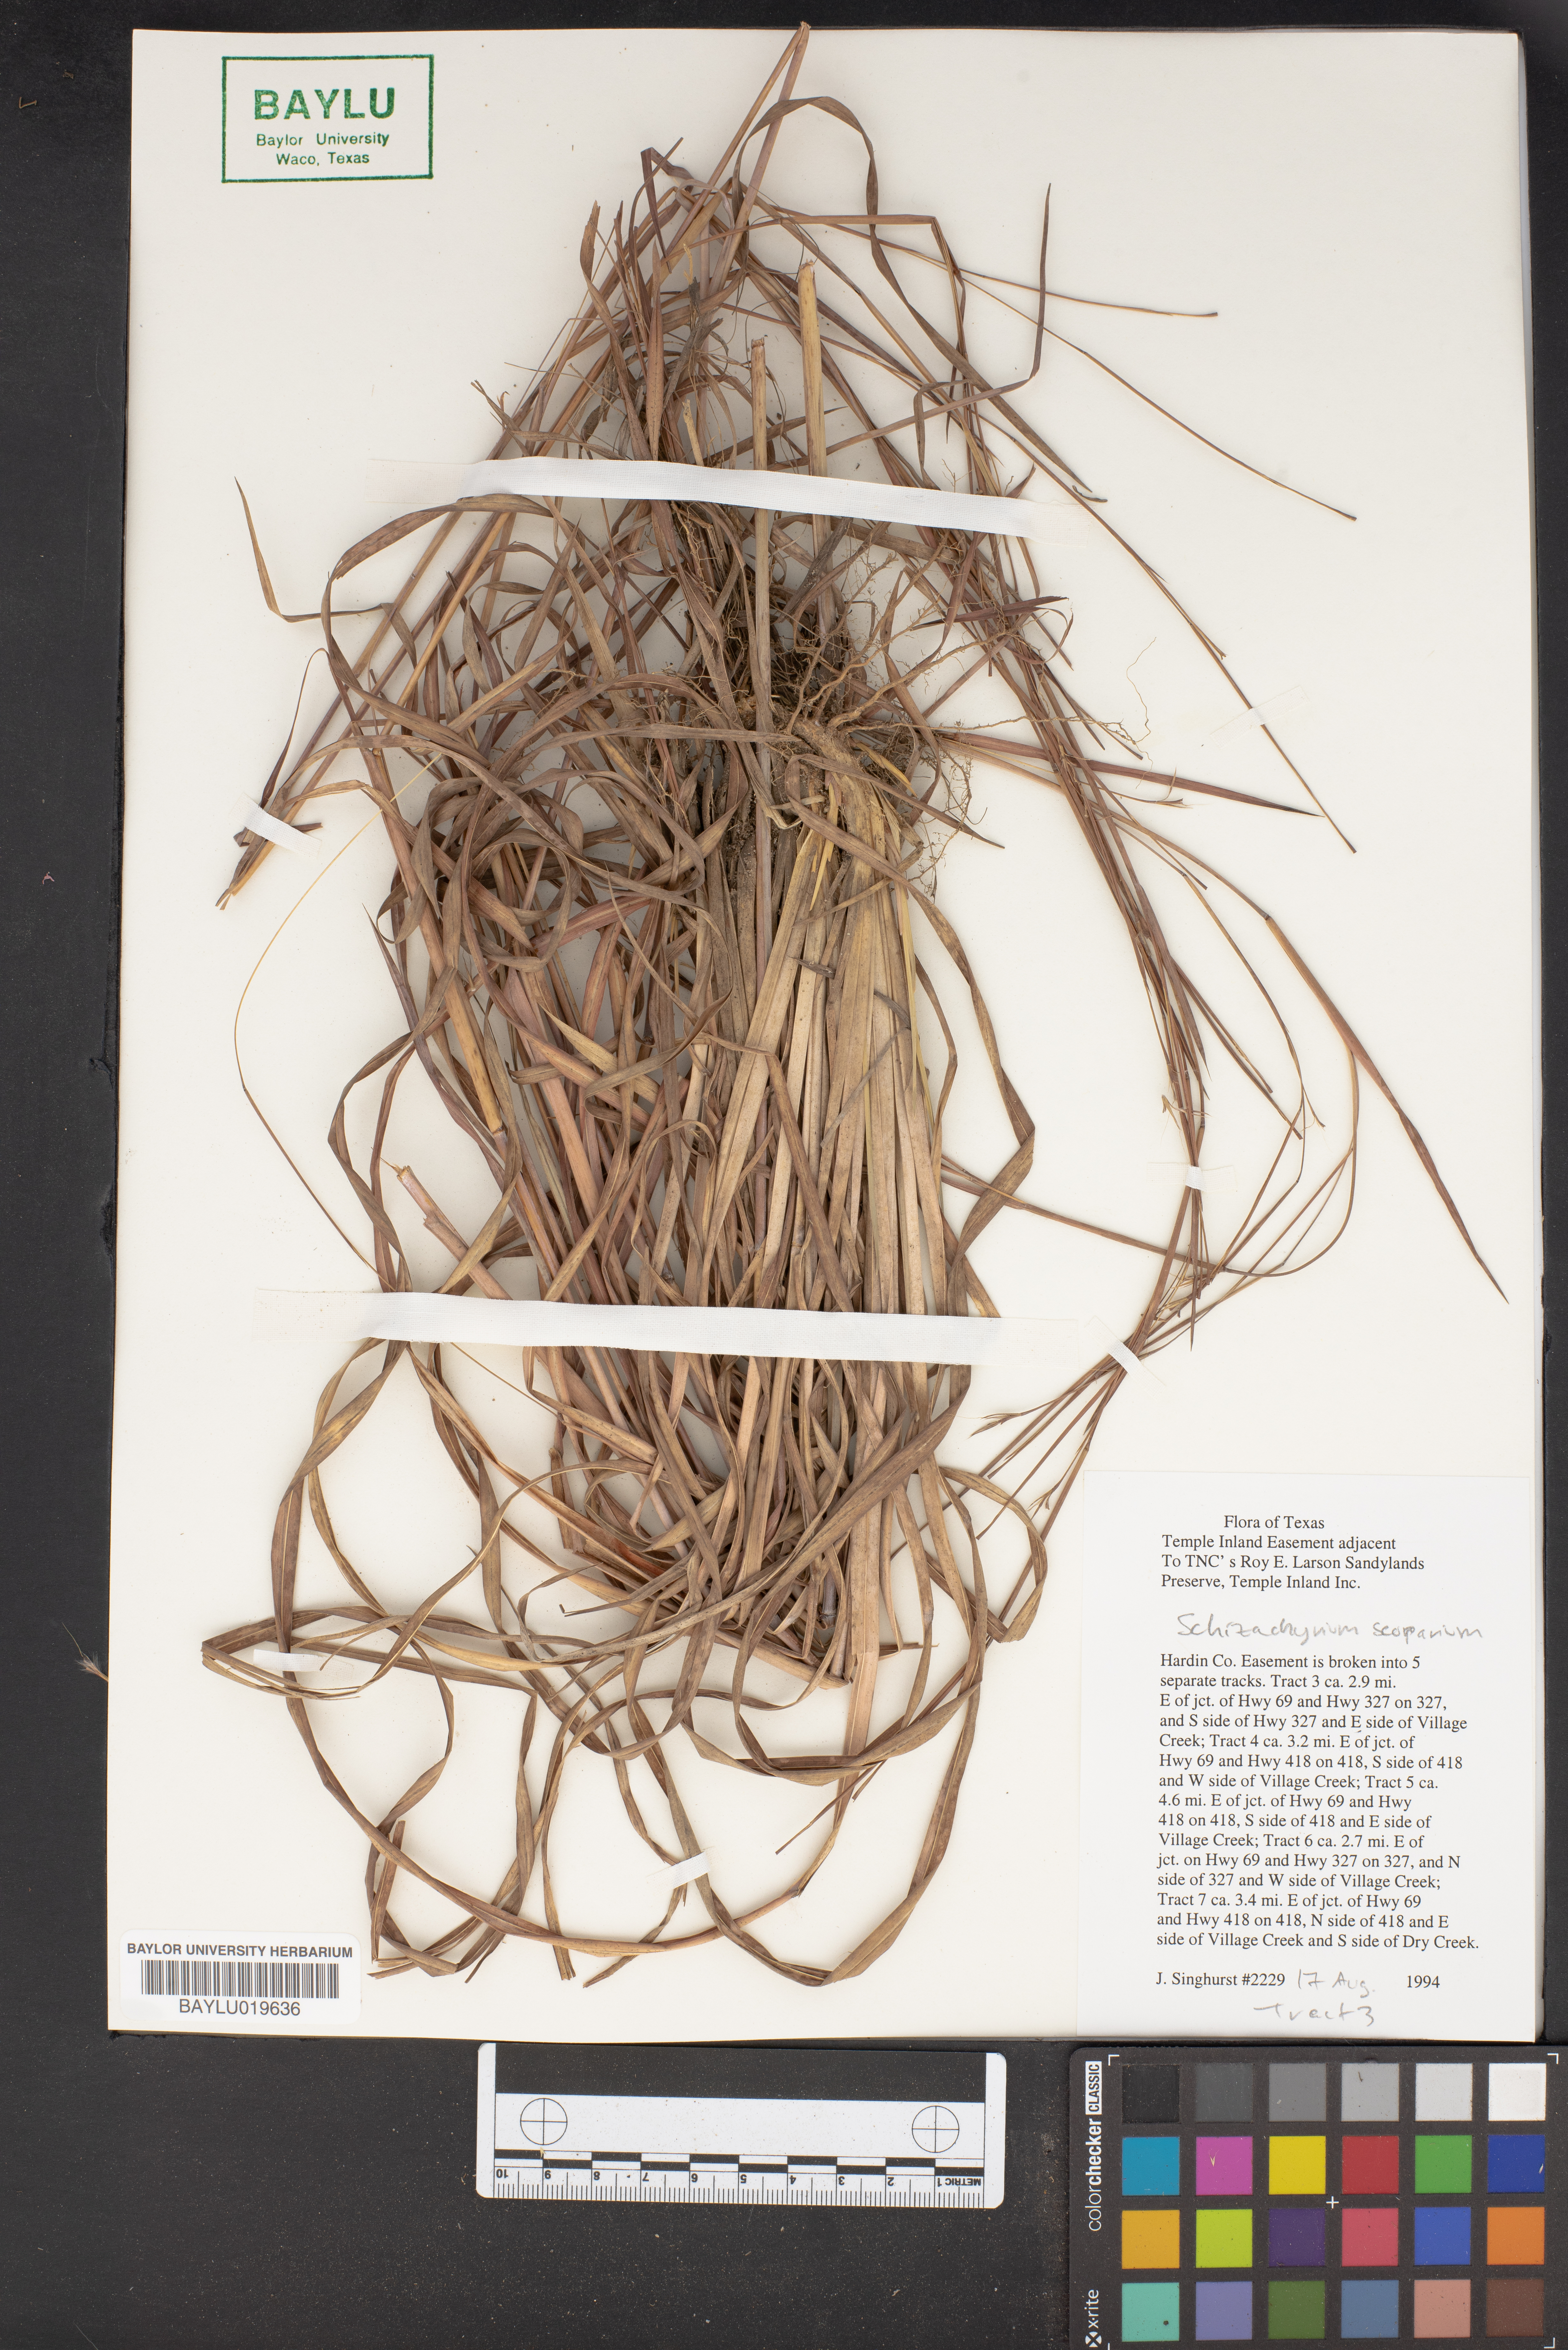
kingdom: Plantae
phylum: Tracheophyta
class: Liliopsida
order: Poales
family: Poaceae
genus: Schizachyrium
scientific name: Schizachyrium scoparium
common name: Little bluestem
